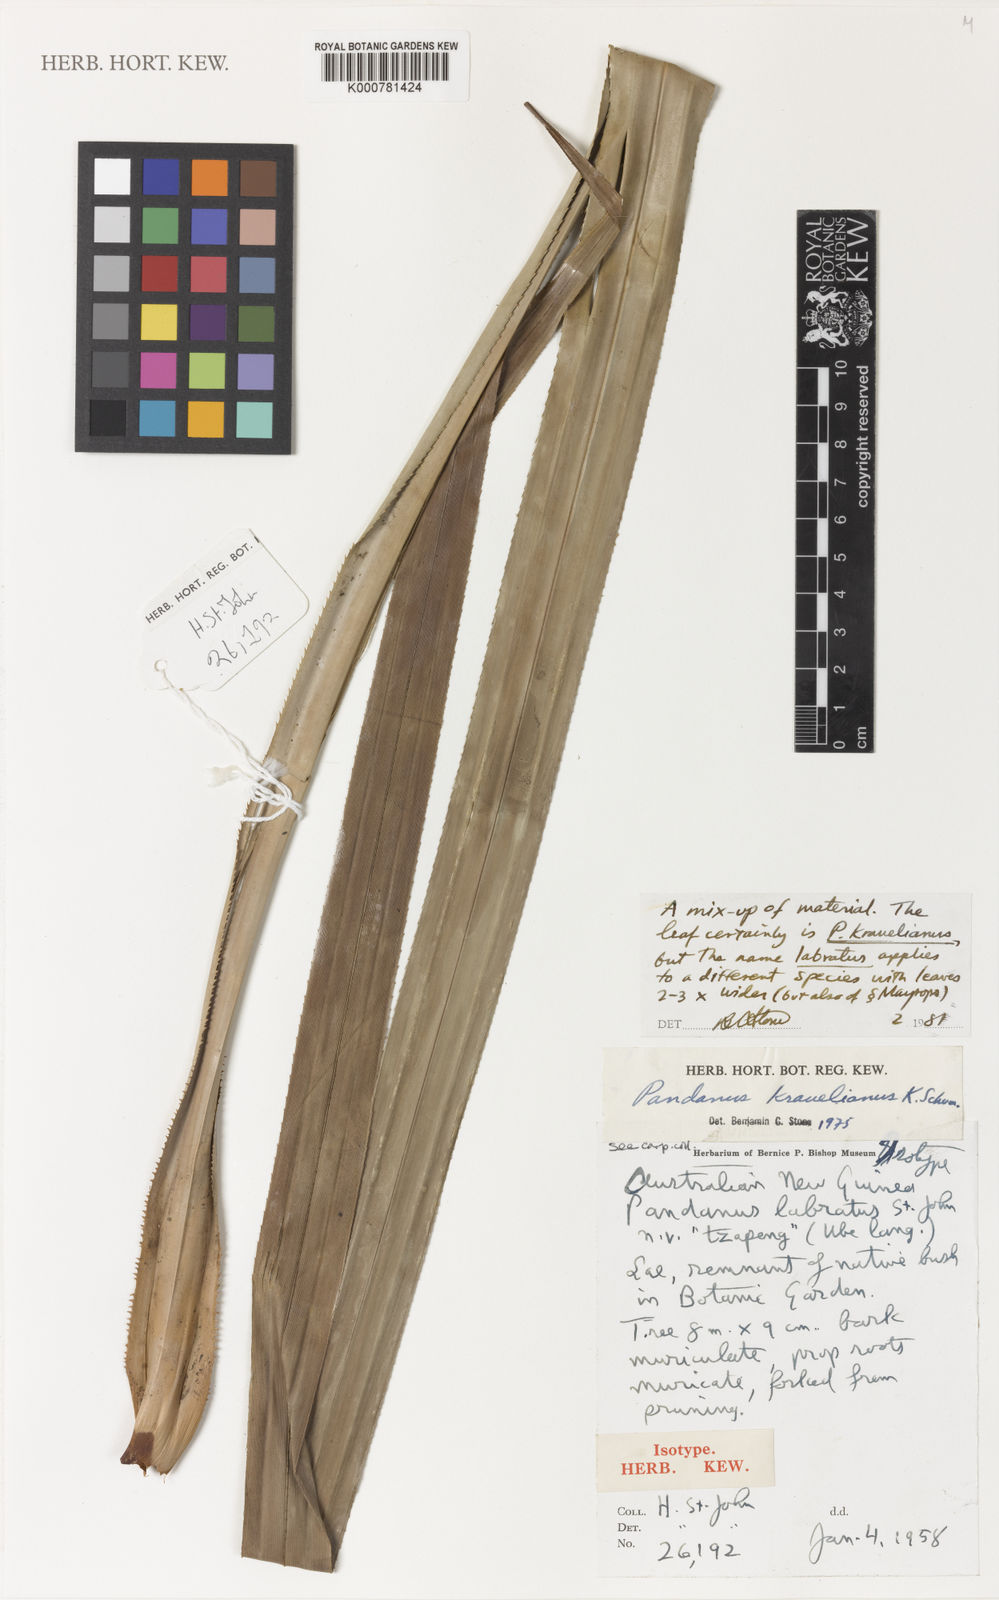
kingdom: Plantae
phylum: Tracheophyta
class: Liliopsida
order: Pandanales
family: Pandanaceae
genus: Pandanus
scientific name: Pandanus krauelianus
